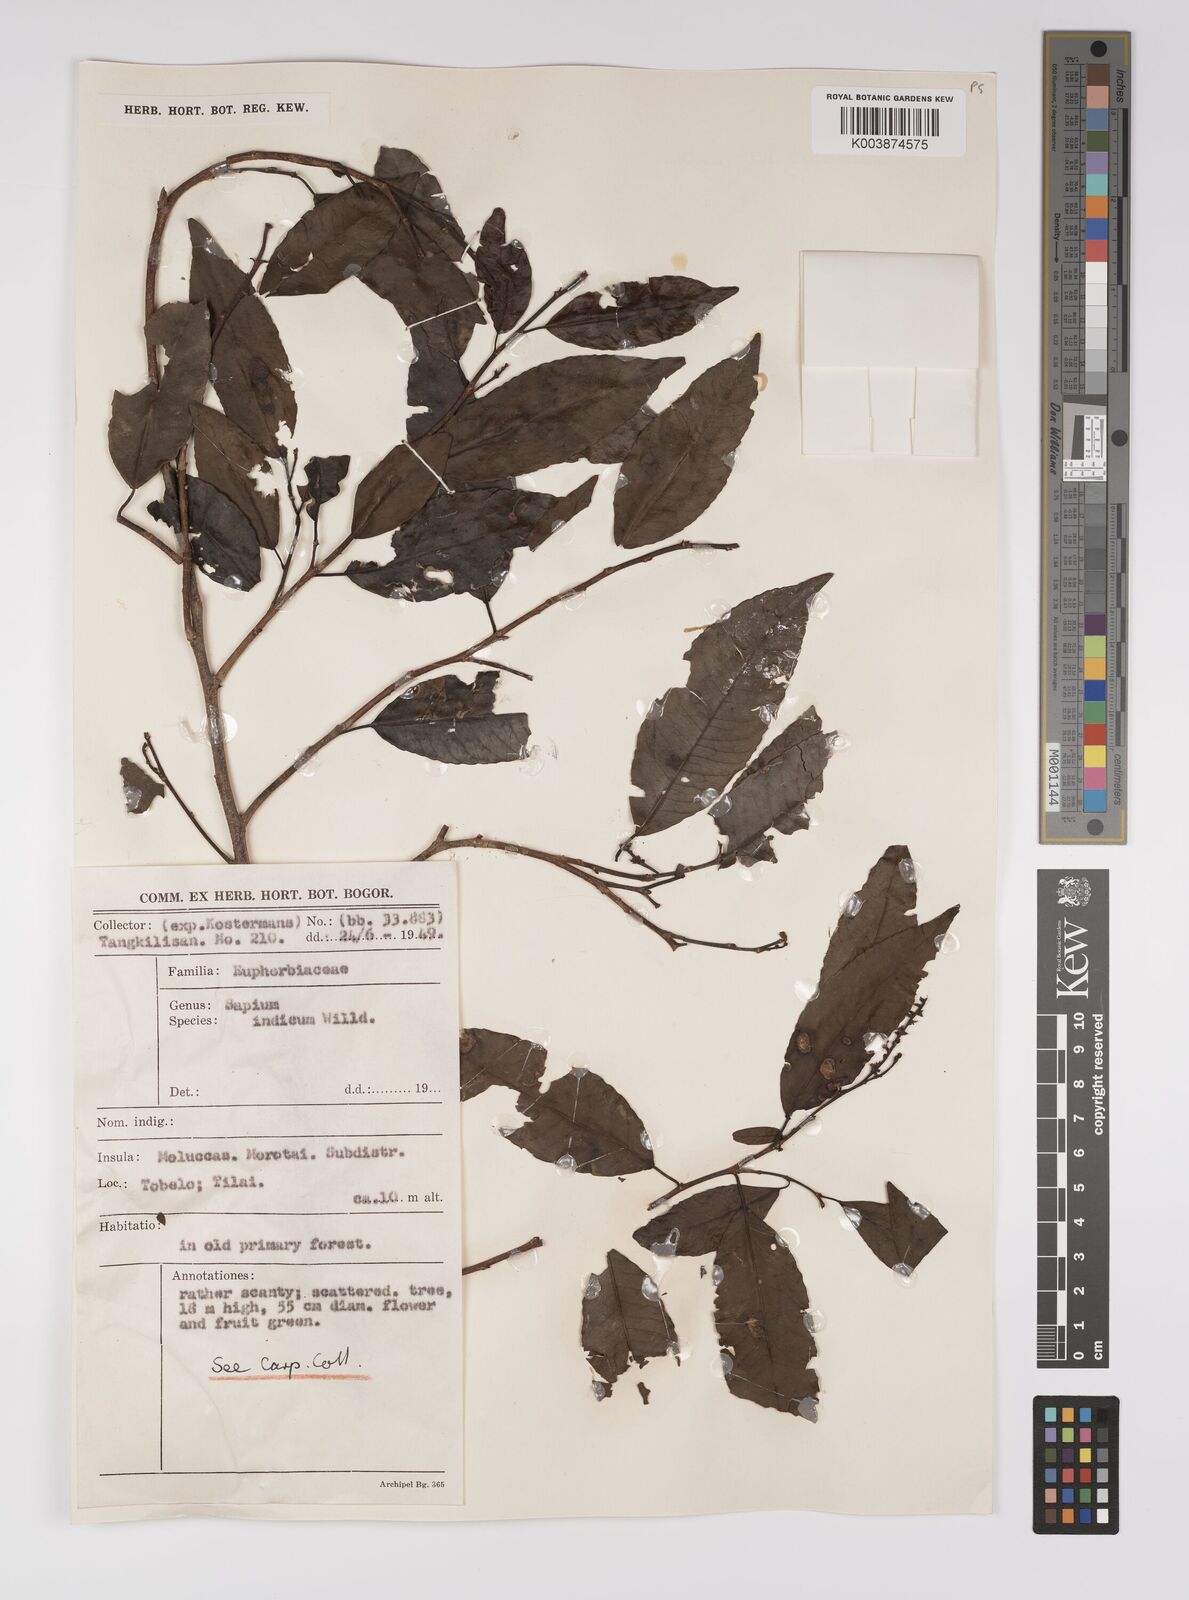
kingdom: Plantae
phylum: Tracheophyta
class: Magnoliopsida
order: Malpighiales
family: Euphorbiaceae
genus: Shirakiopsis
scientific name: Shirakiopsis indica
